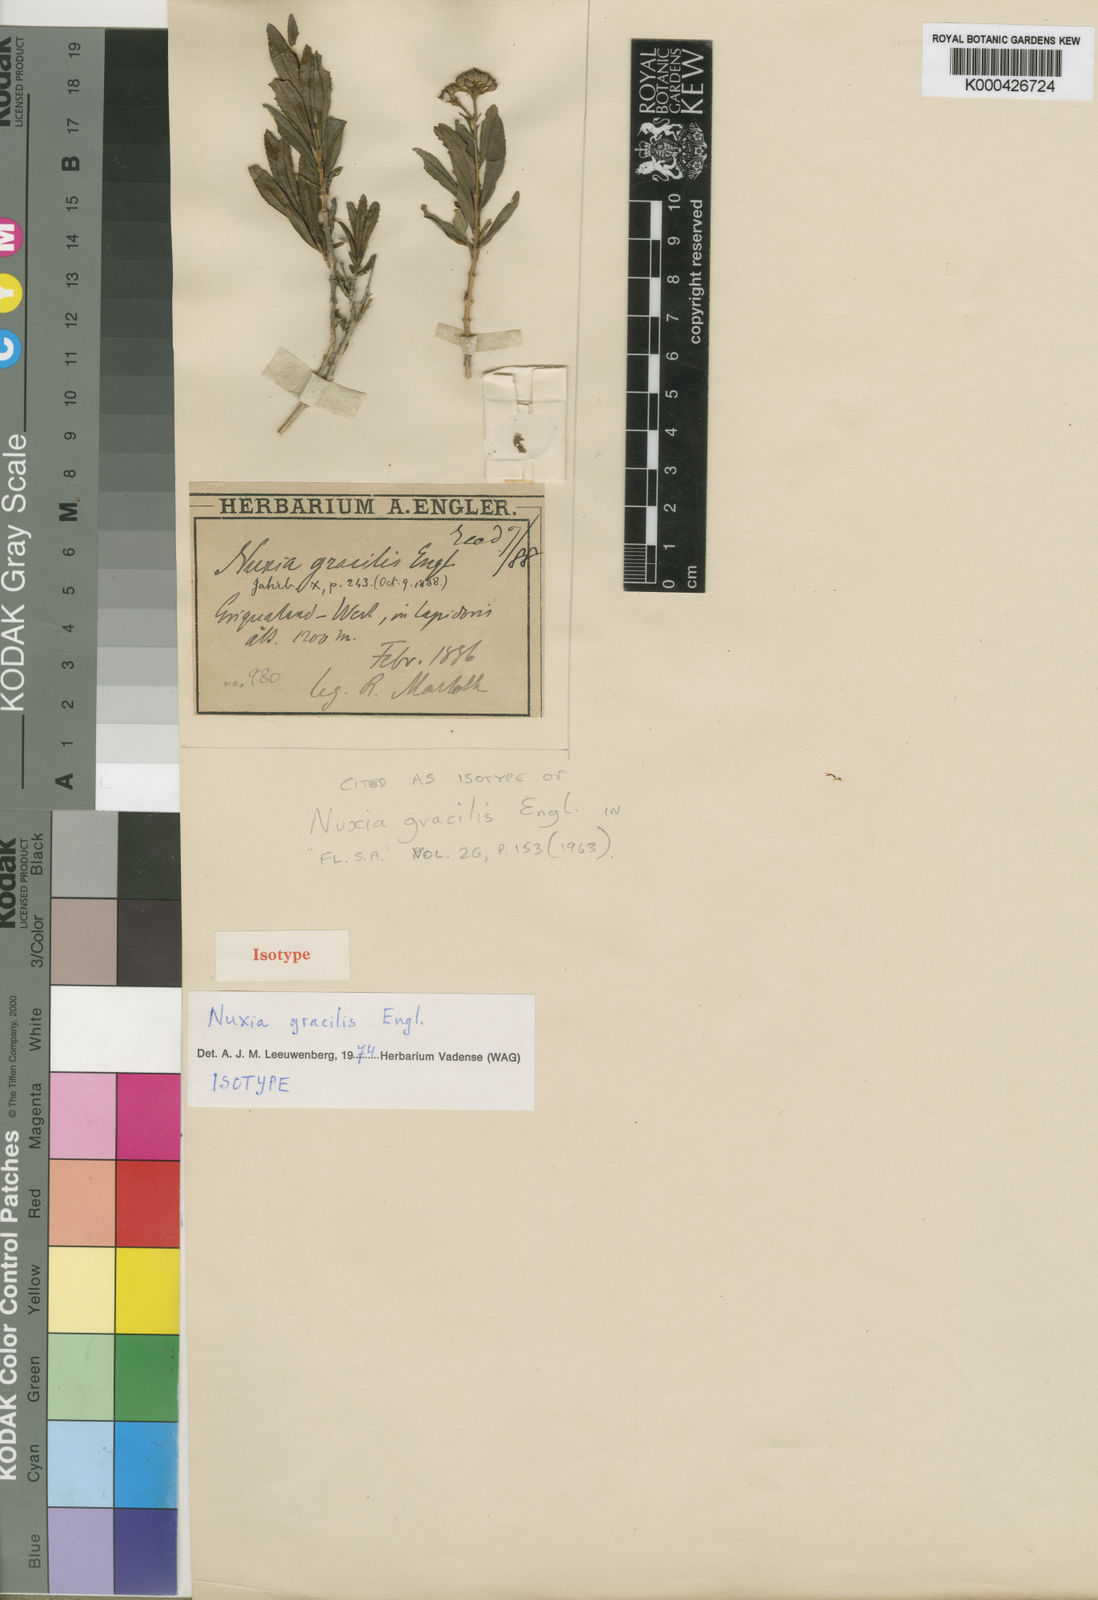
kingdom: Plantae
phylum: Tracheophyta
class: Magnoliopsida
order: Lamiales
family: Stilbaceae
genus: Nuxia
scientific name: Nuxia gracilis
